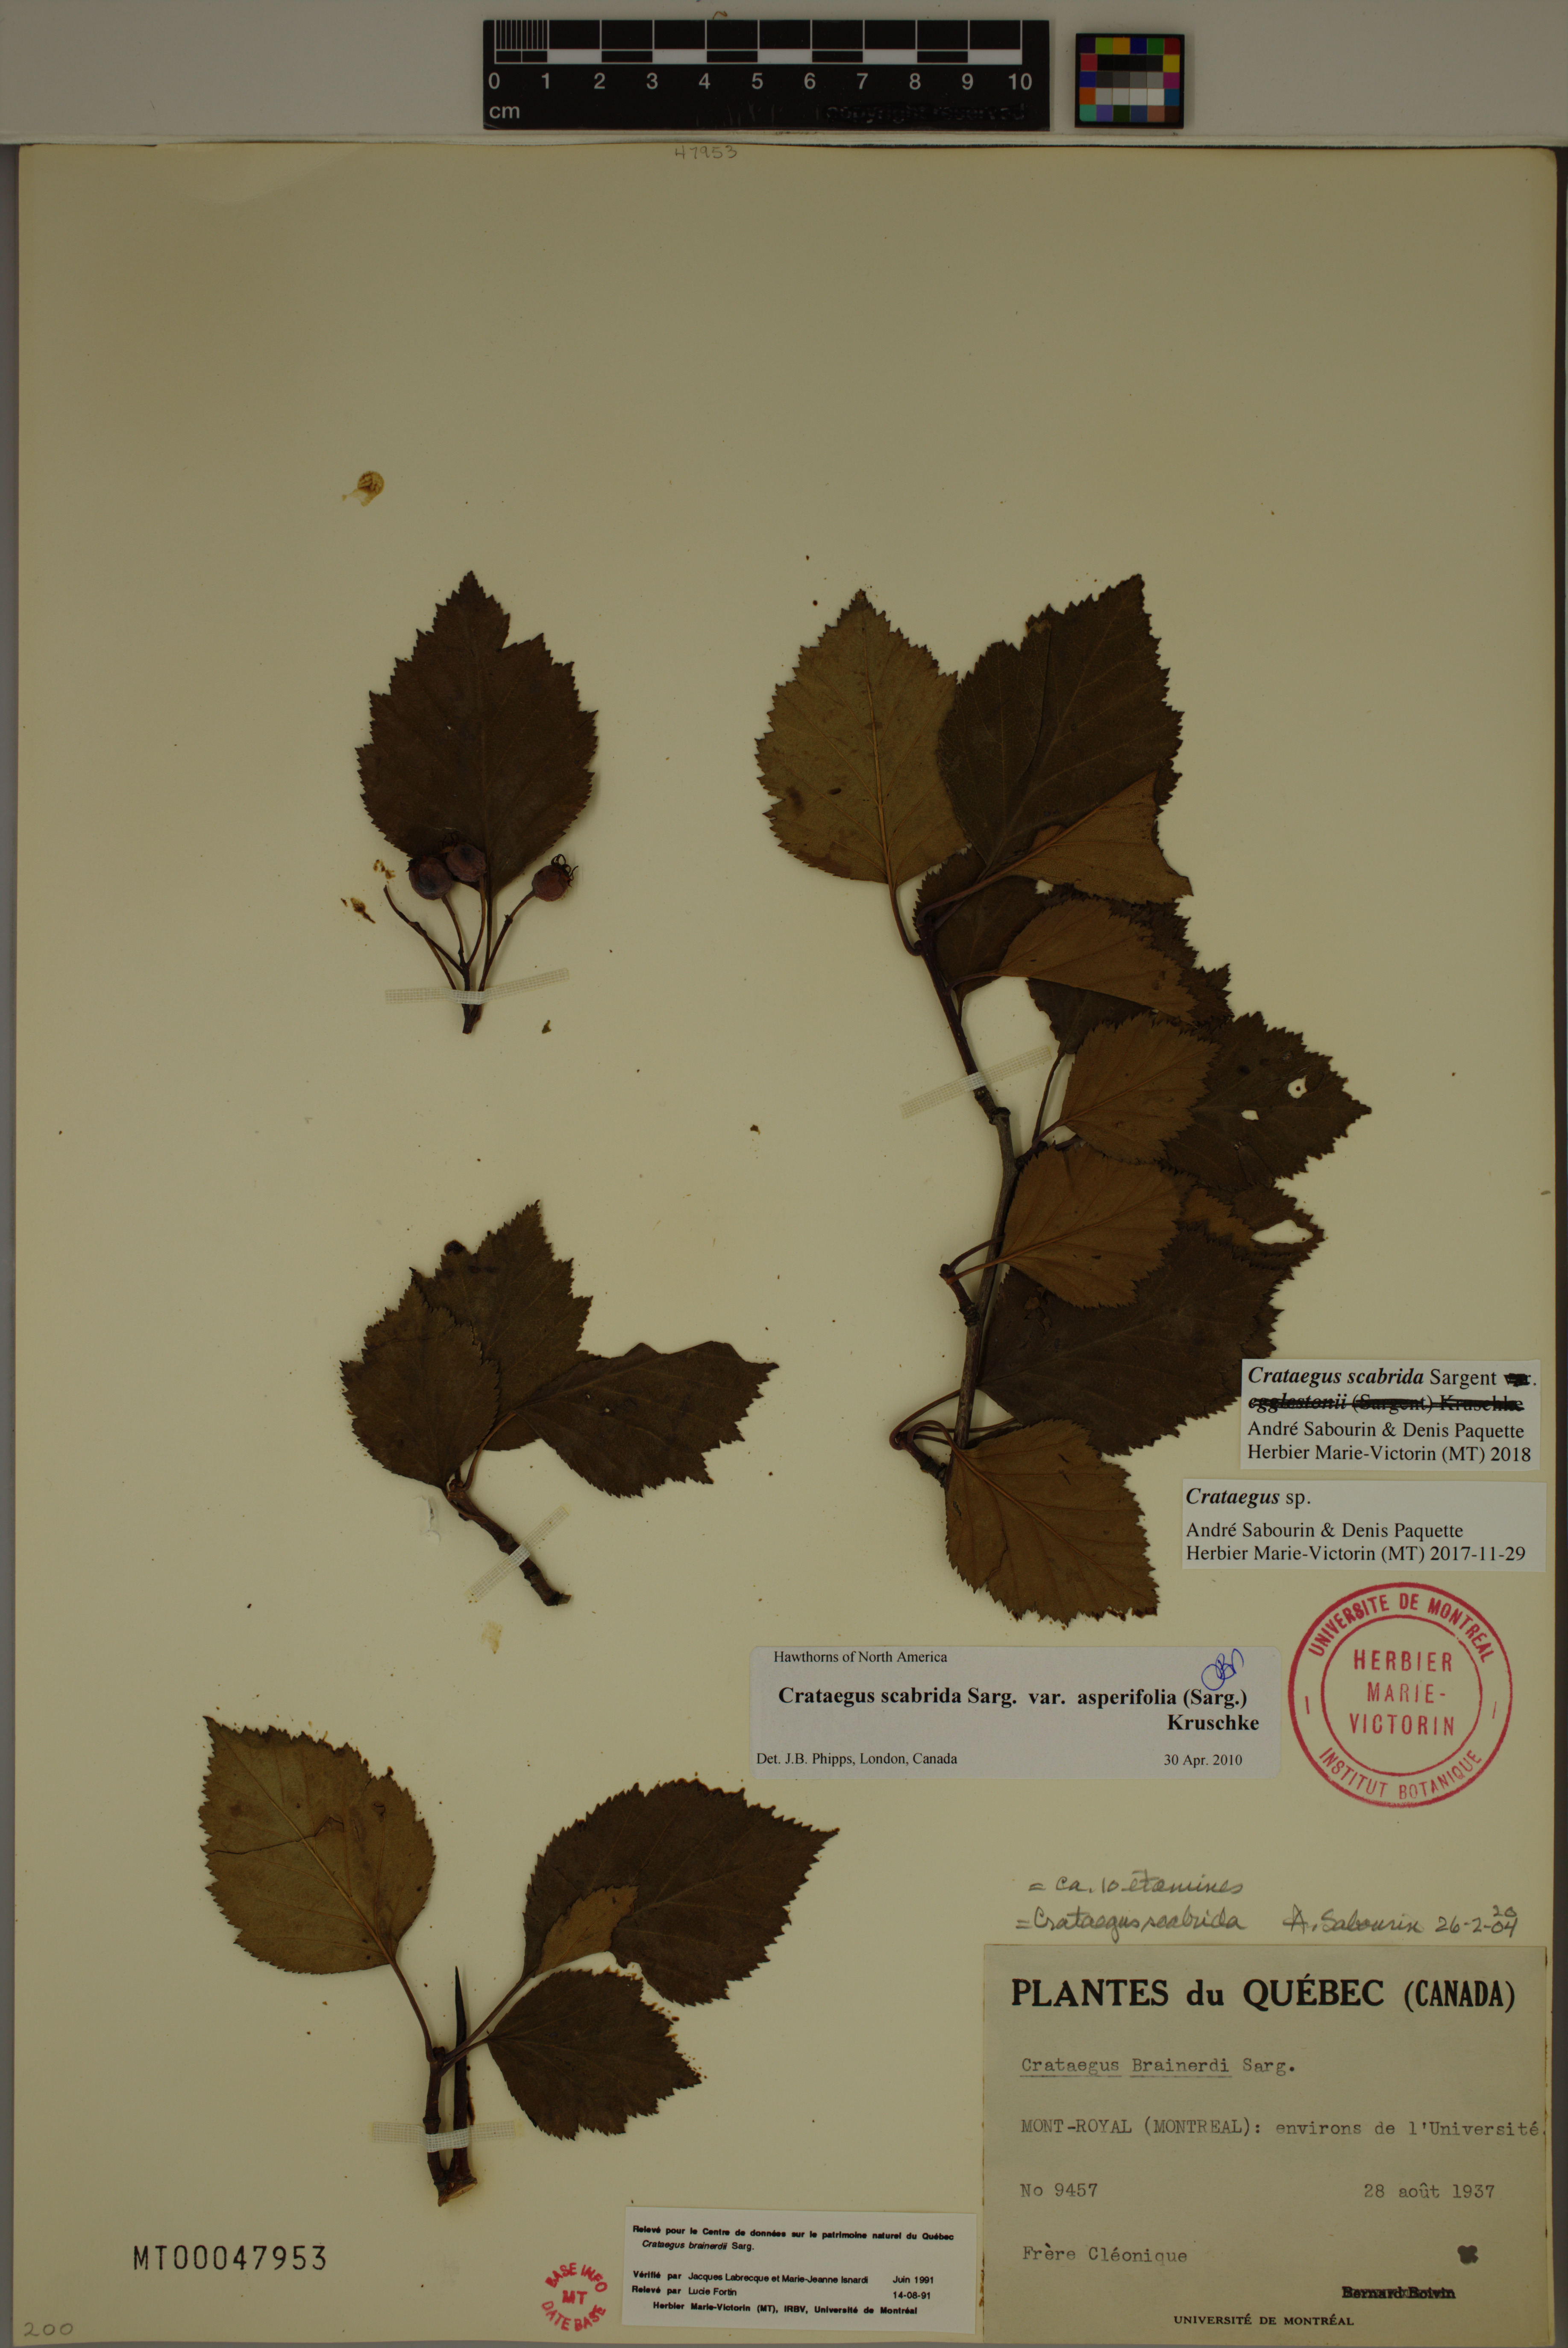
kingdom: Plantae
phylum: Tracheophyta
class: Magnoliopsida
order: Rosales
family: Rosaceae
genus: Crataegus
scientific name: Crataegus scabrida
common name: Rough hawthorn
